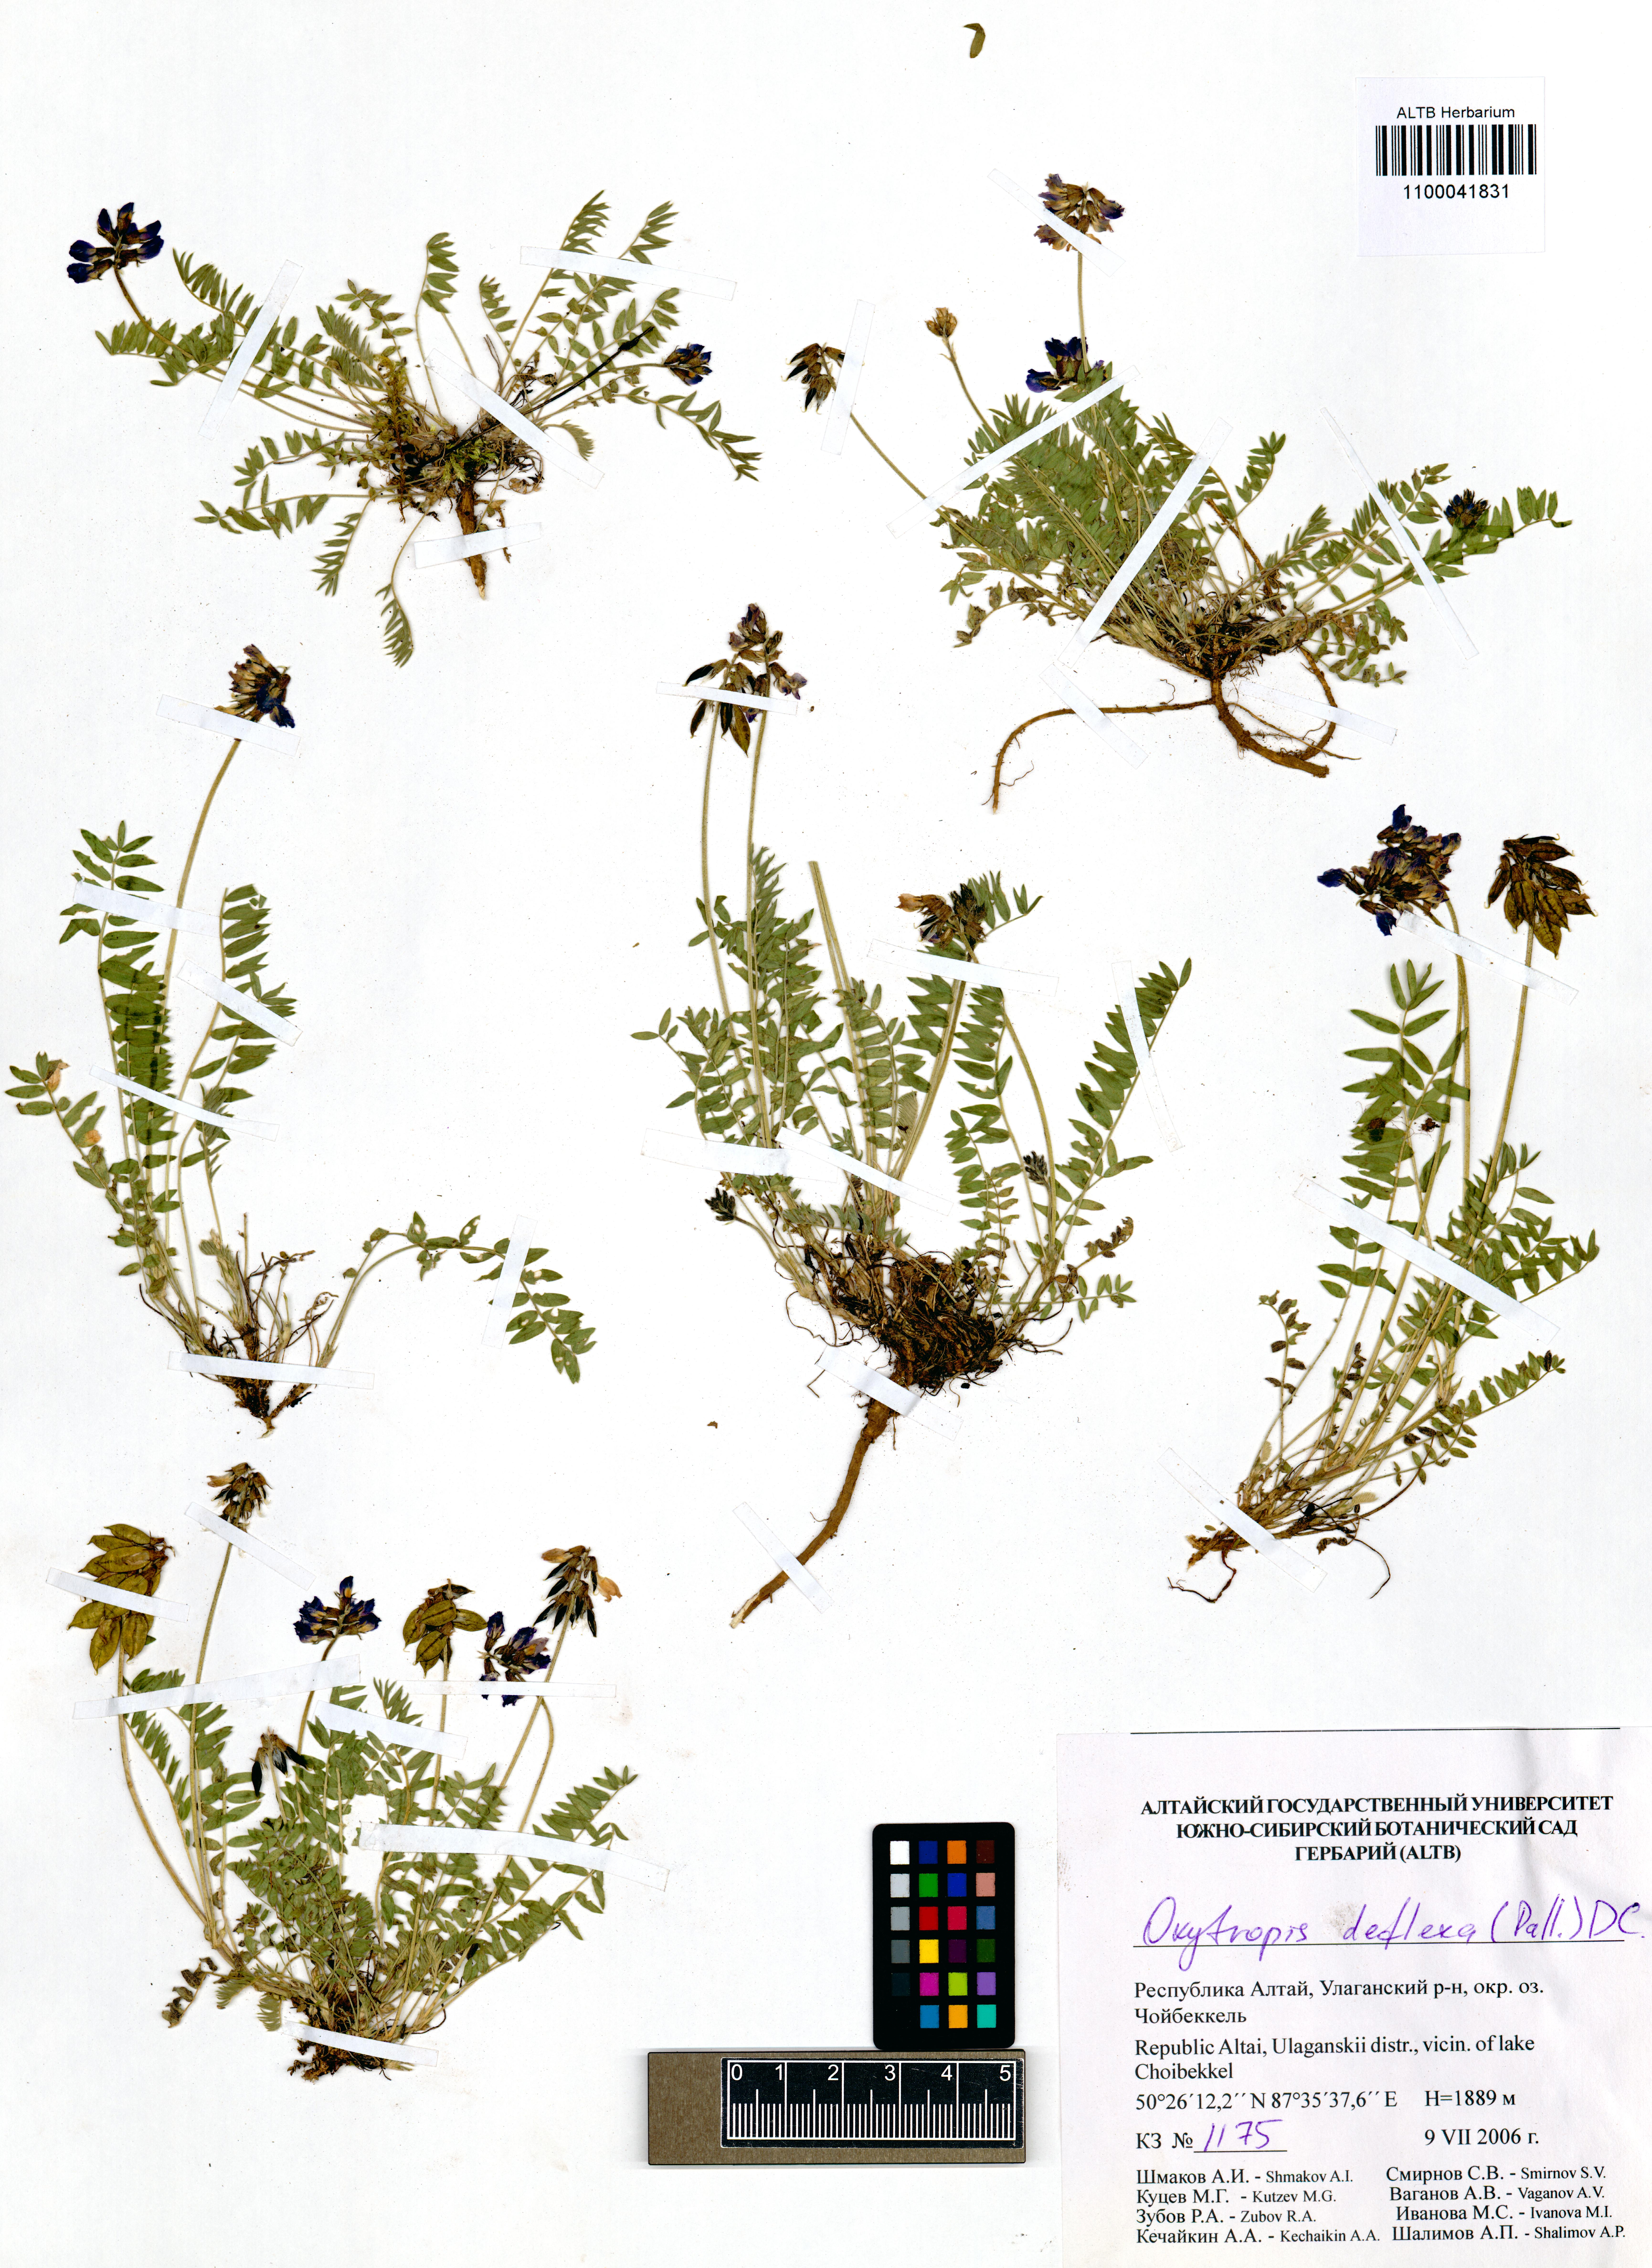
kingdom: Plantae
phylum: Tracheophyta
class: Magnoliopsida
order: Fabales
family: Fabaceae
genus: Oxytropis
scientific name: Oxytropis deflexa
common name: Stemmed oxytrope
